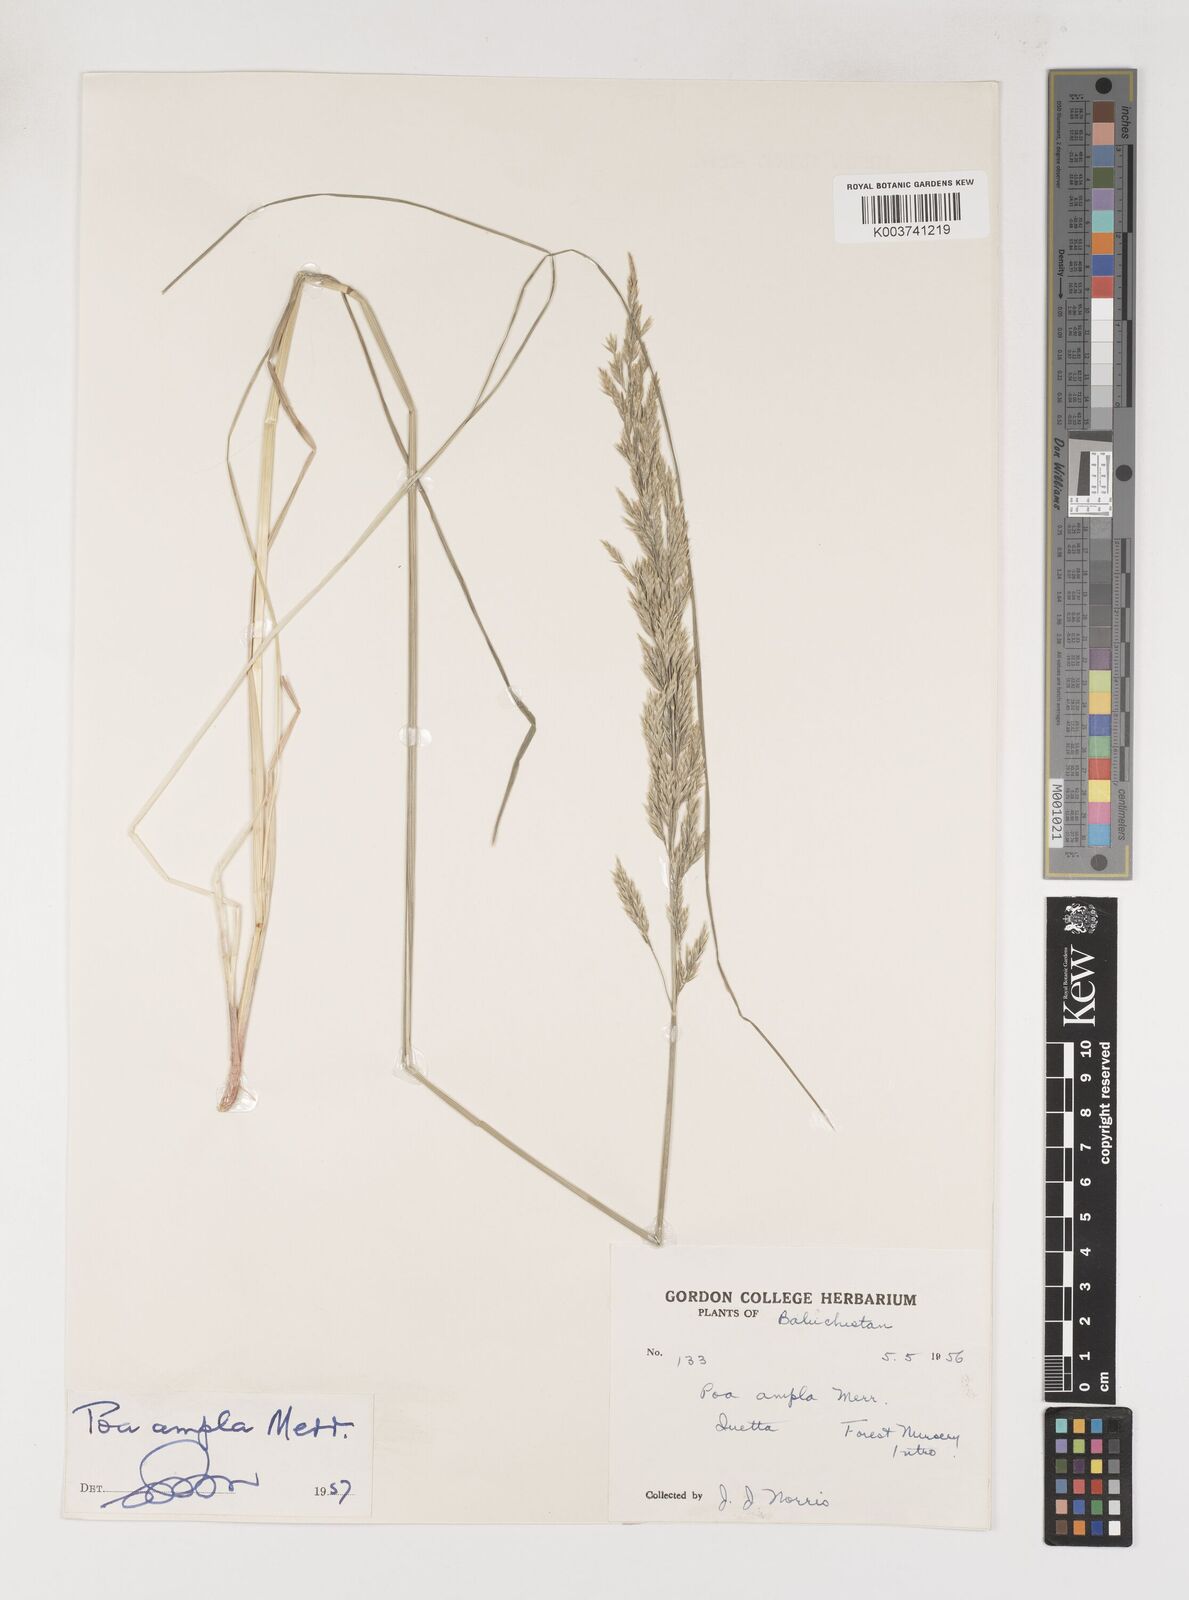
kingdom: Plantae
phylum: Tracheophyta
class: Liliopsida
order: Poales
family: Poaceae
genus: Poa
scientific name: Poa secunda
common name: Sandberg bluegrass
